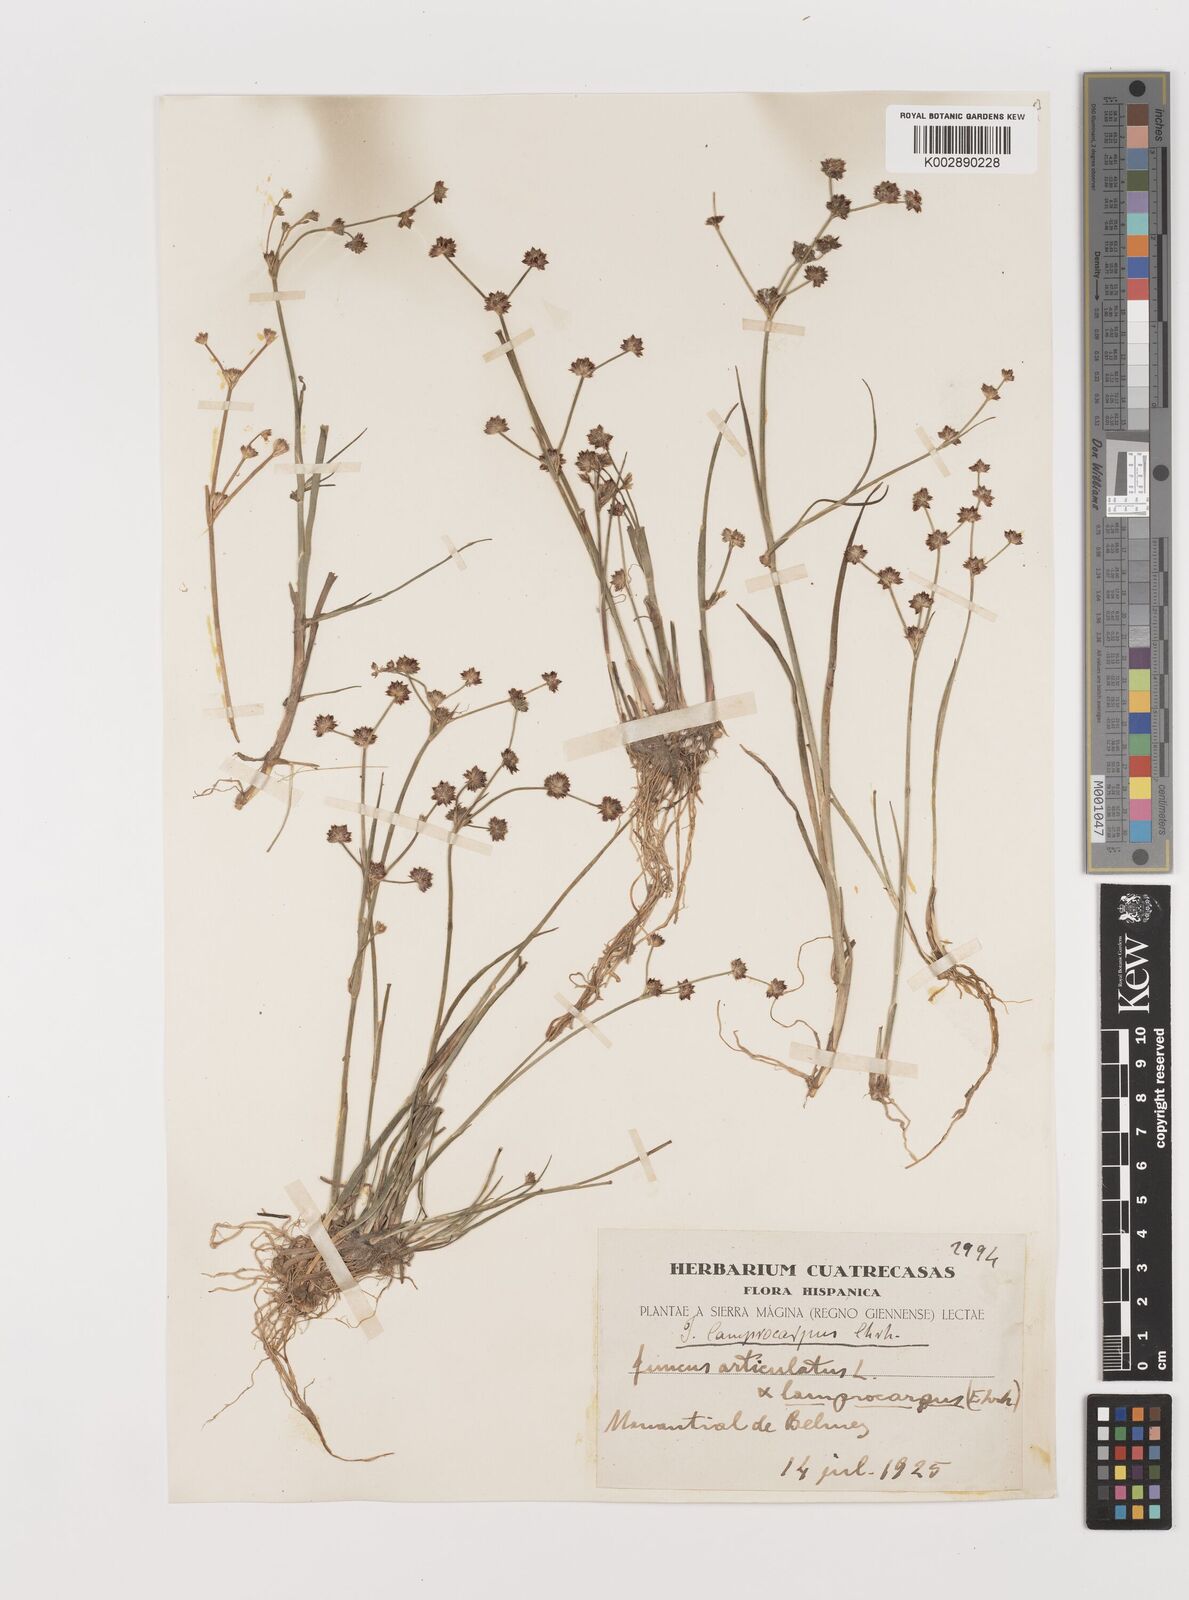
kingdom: Plantae
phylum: Tracheophyta
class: Liliopsida
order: Poales
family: Juncaceae
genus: Juncus
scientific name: Juncus articulatus
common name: Jointed rush
